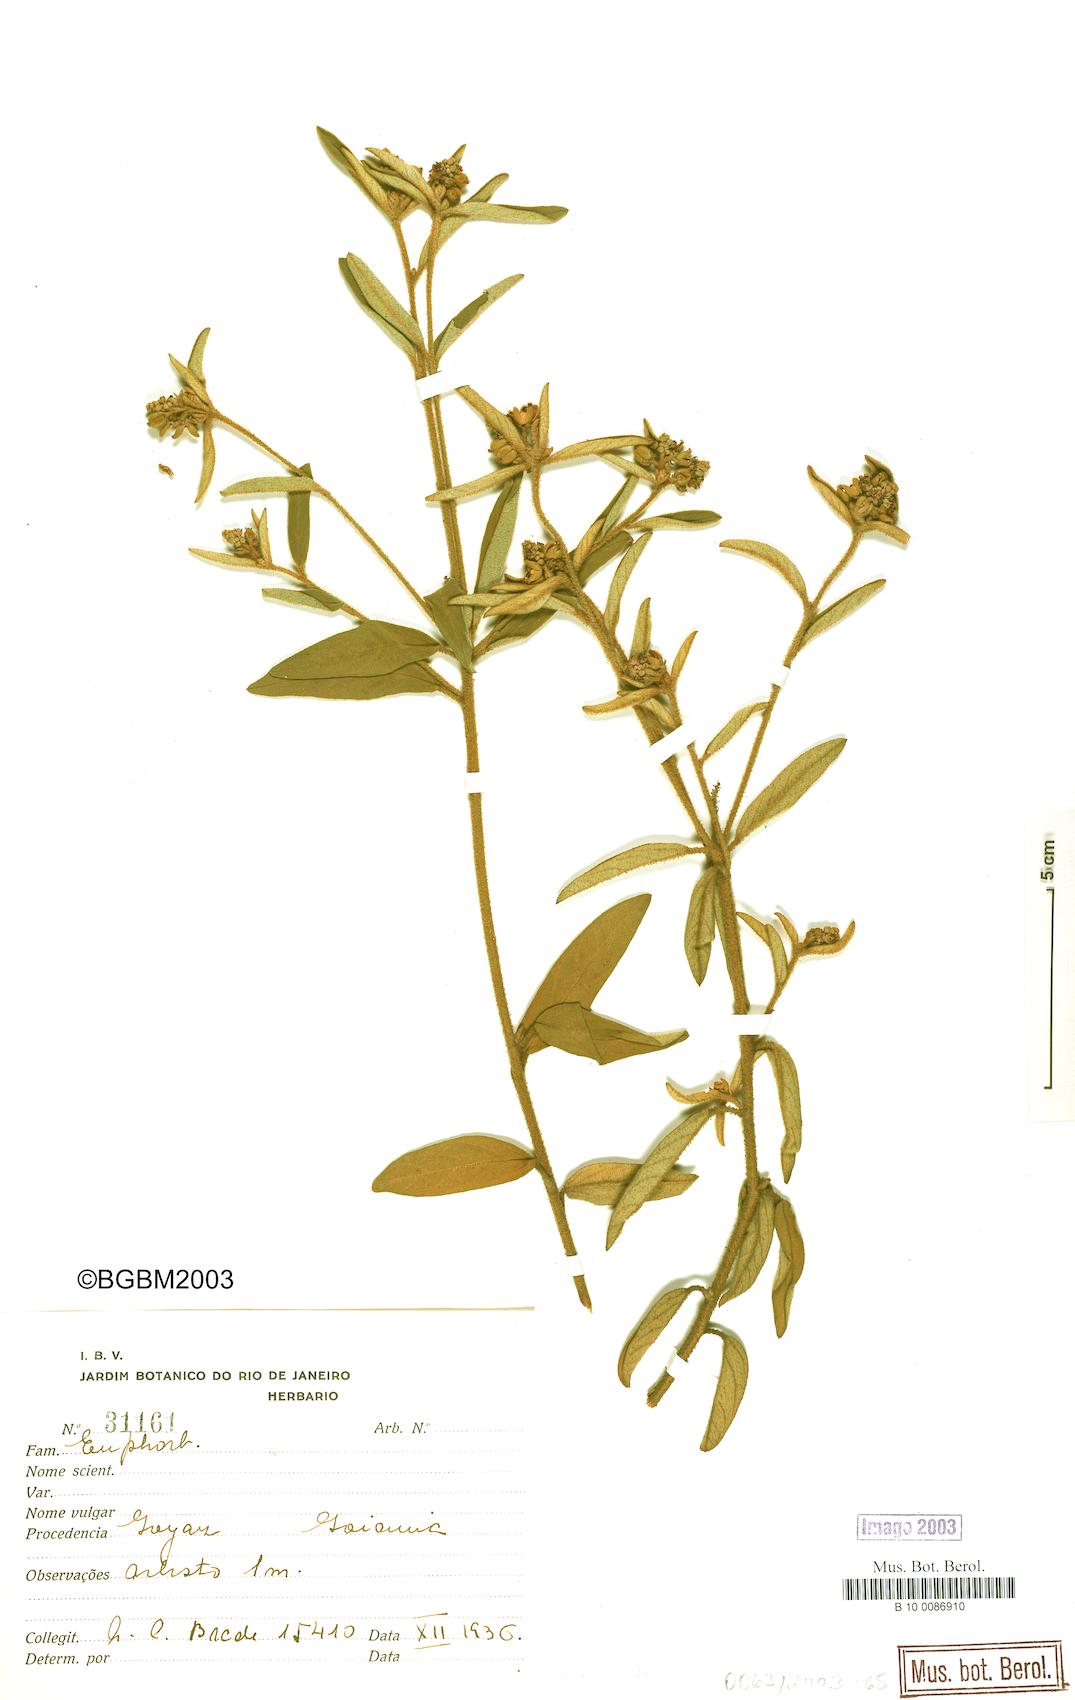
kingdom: Plantae
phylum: Tracheophyta
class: Magnoliopsida
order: Malpighiales
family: Euphorbiaceae
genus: Croton
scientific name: Croton
